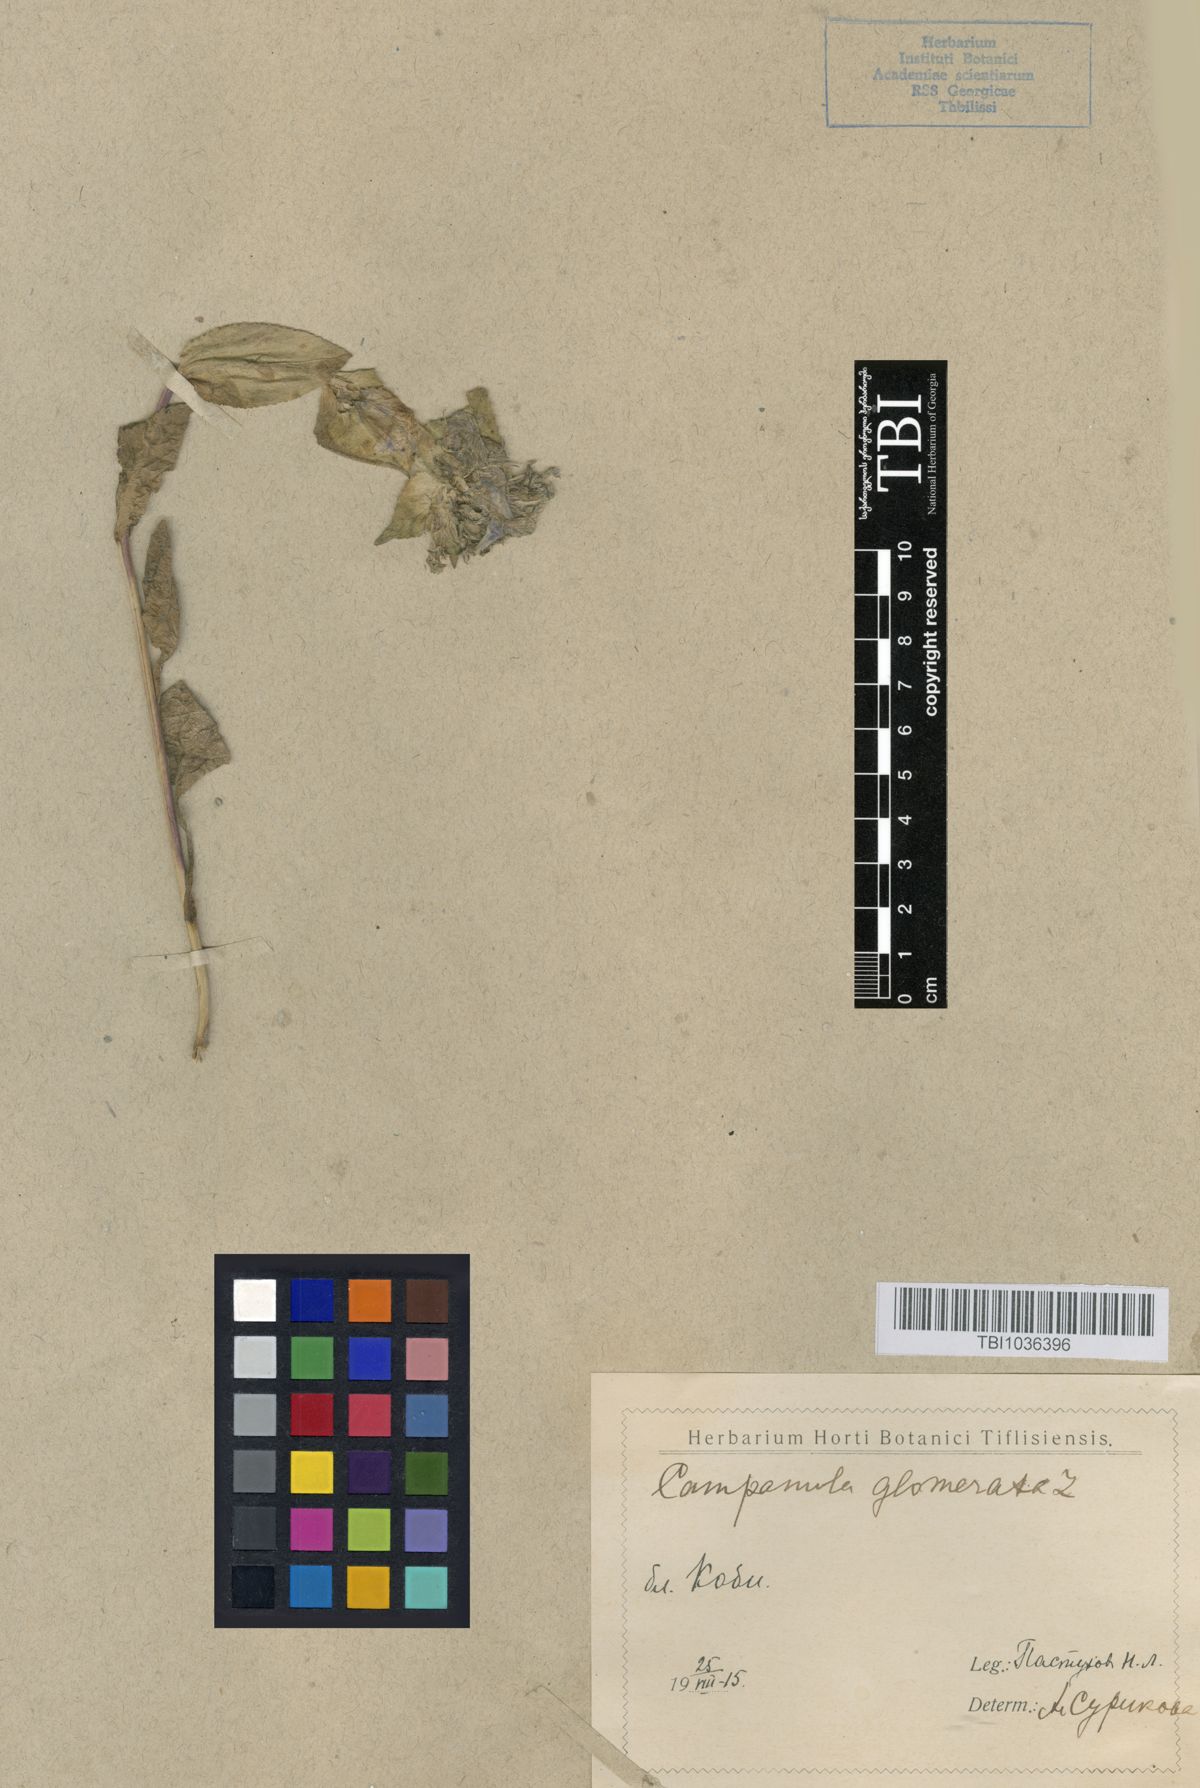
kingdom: Plantae
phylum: Tracheophyta
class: Magnoliopsida
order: Asterales
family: Campanulaceae
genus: Campanula
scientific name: Campanula glomerata
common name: Clustered bellflower
